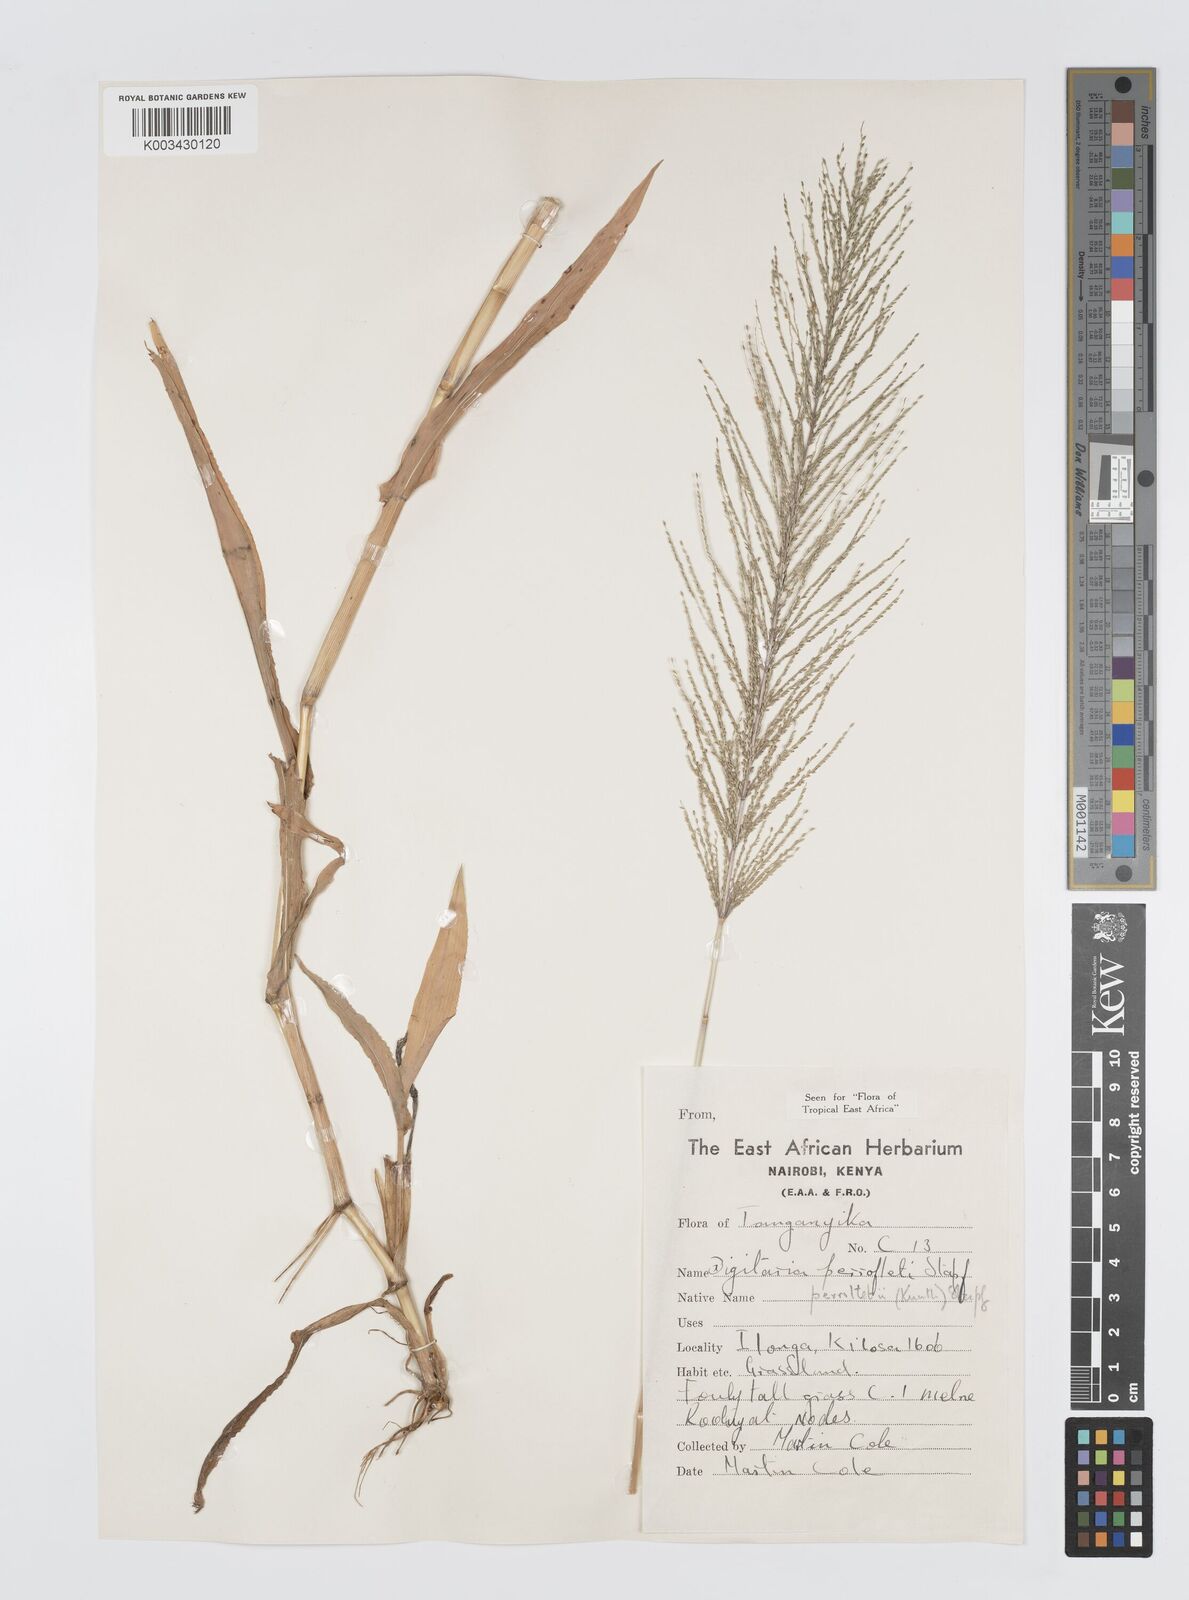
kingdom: Plantae
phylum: Tracheophyta
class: Liliopsida
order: Poales
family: Poaceae
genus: Digitaria
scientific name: Digitaria perrottetii
